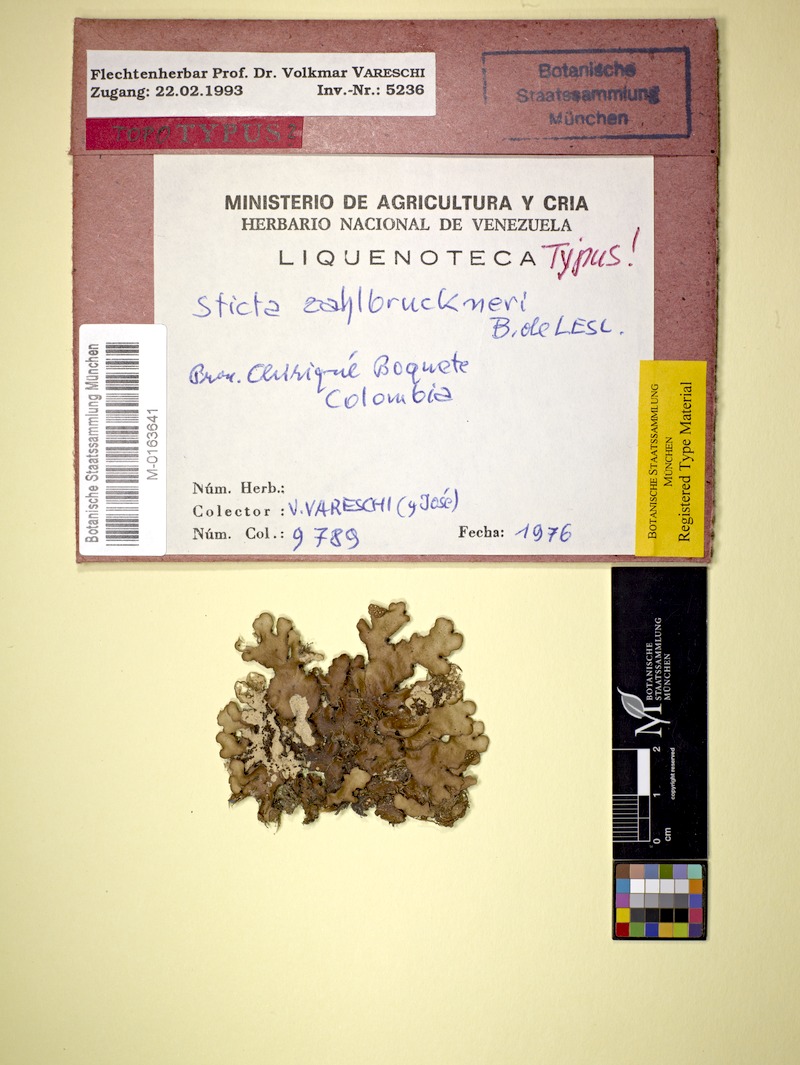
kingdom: Fungi
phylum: Ascomycota
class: Lecanoromycetes
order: Peltigerales
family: Lobariaceae
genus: Sticta
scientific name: Sticta zahlbruckneri
